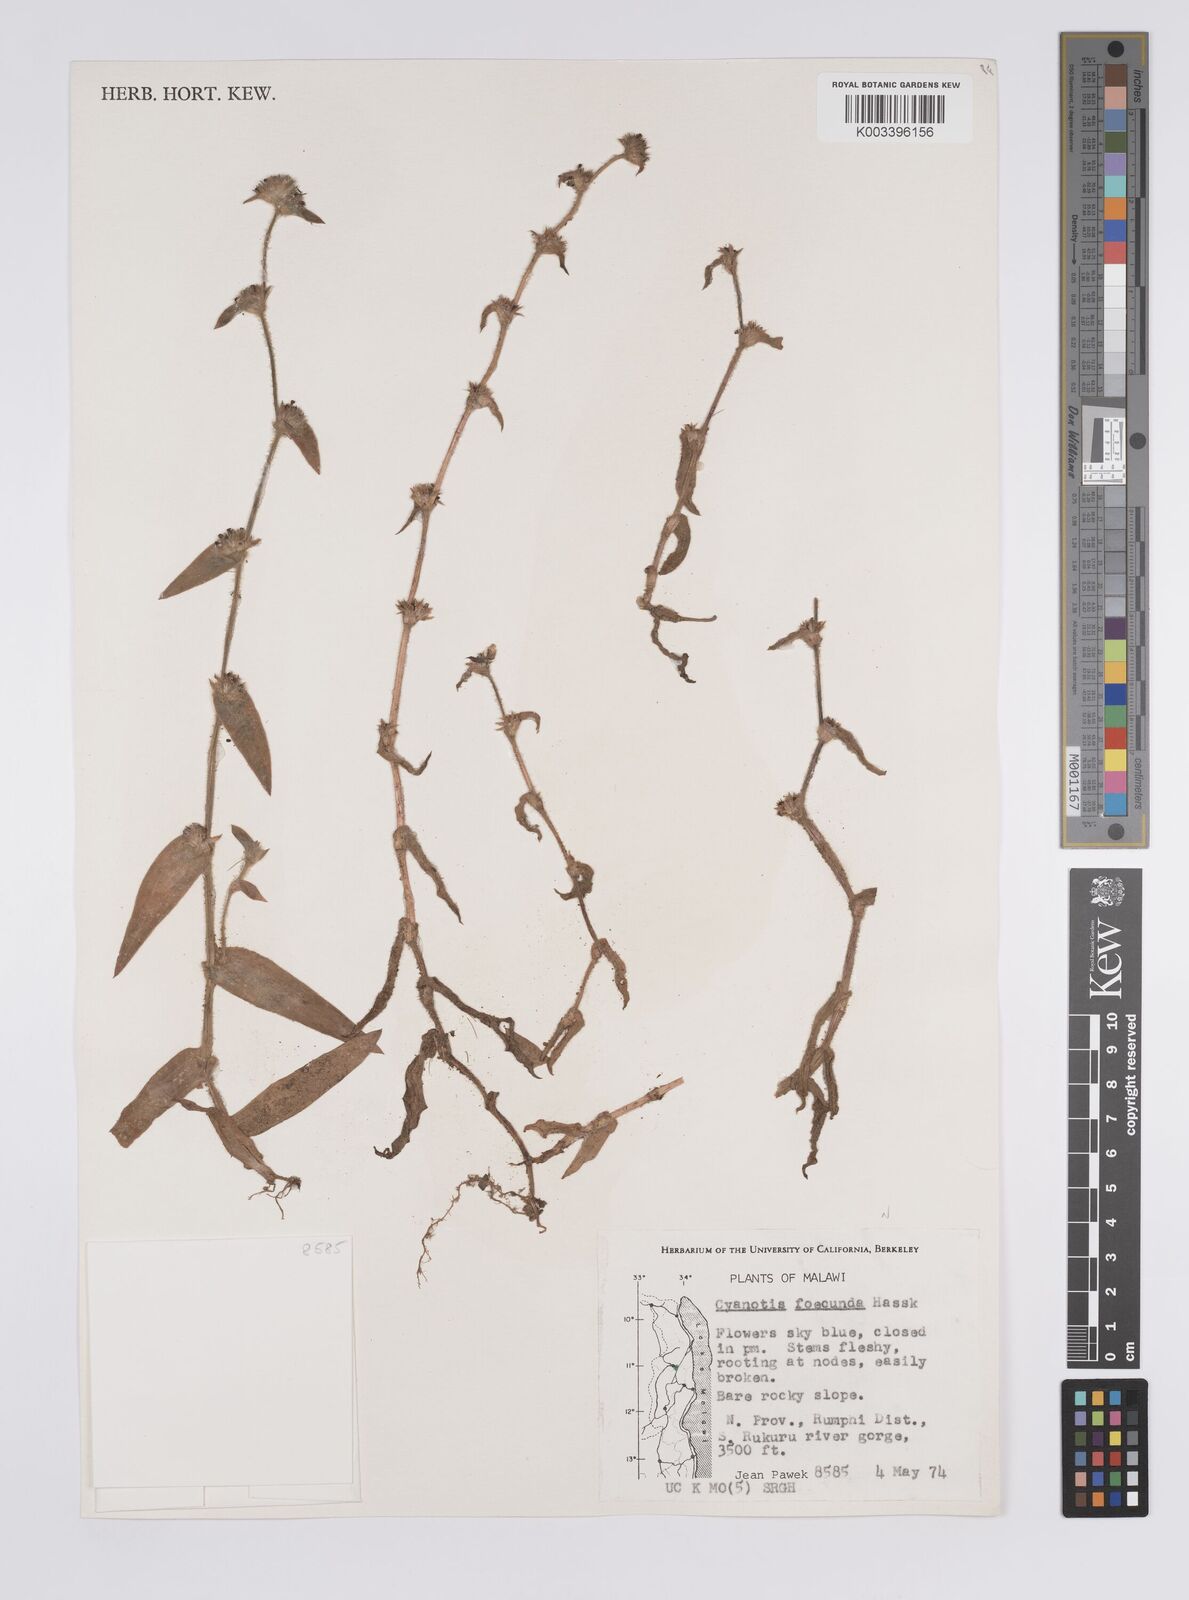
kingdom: Plantae
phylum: Tracheophyta
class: Liliopsida
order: Commelinales
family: Commelinaceae
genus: Cyanotis
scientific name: Cyanotis foecunda
